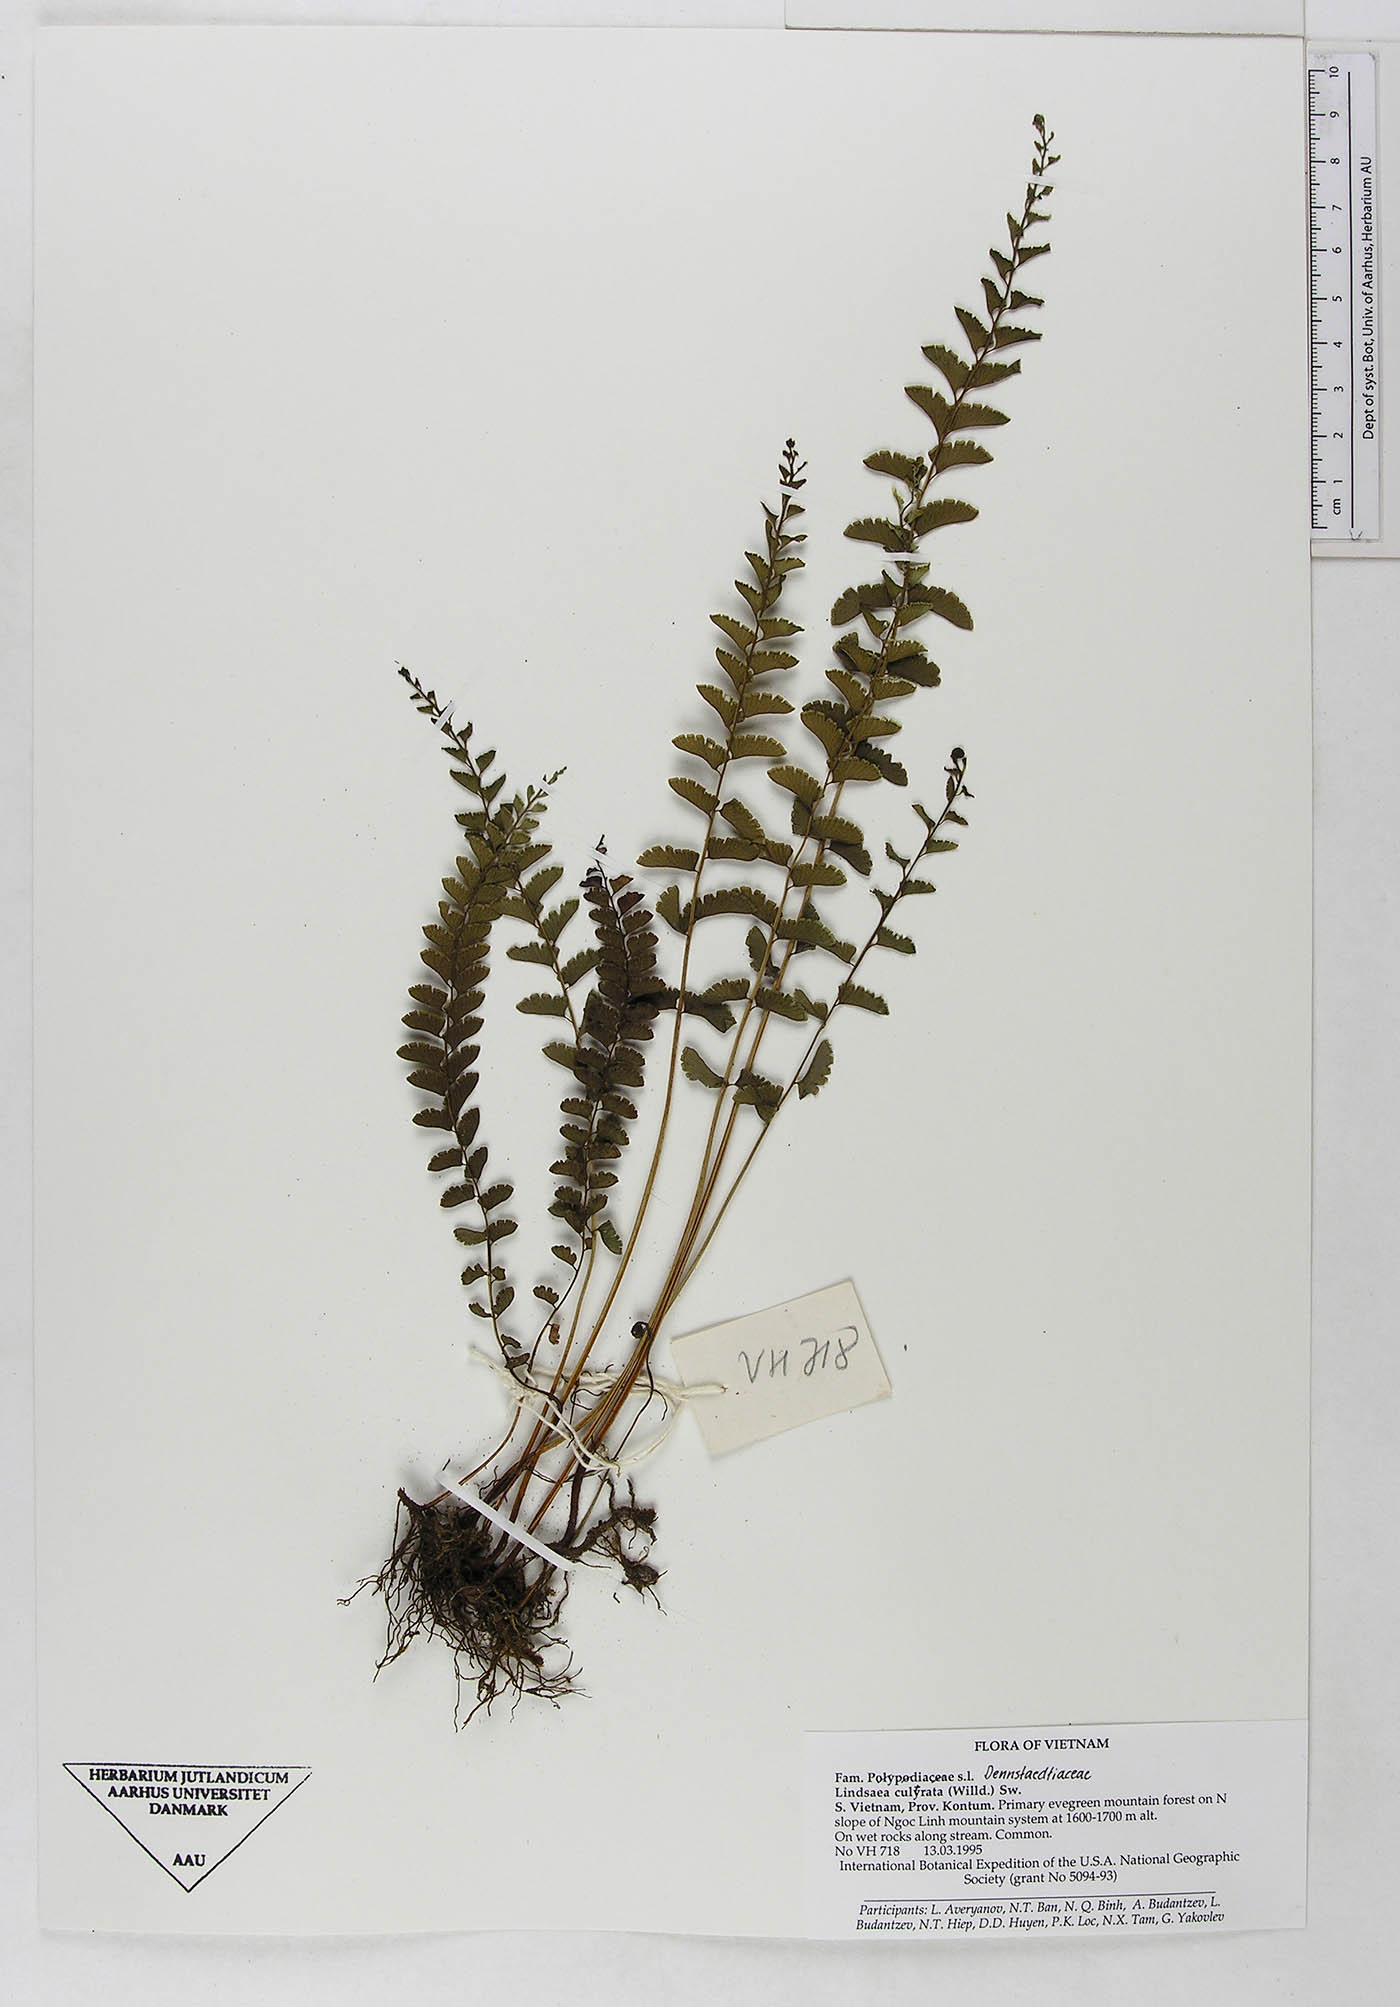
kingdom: Plantae
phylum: Tracheophyta
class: Polypodiopsida
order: Polypodiales
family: Lindsaeaceae
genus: Lindsaea
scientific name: Lindsaea cultrata
